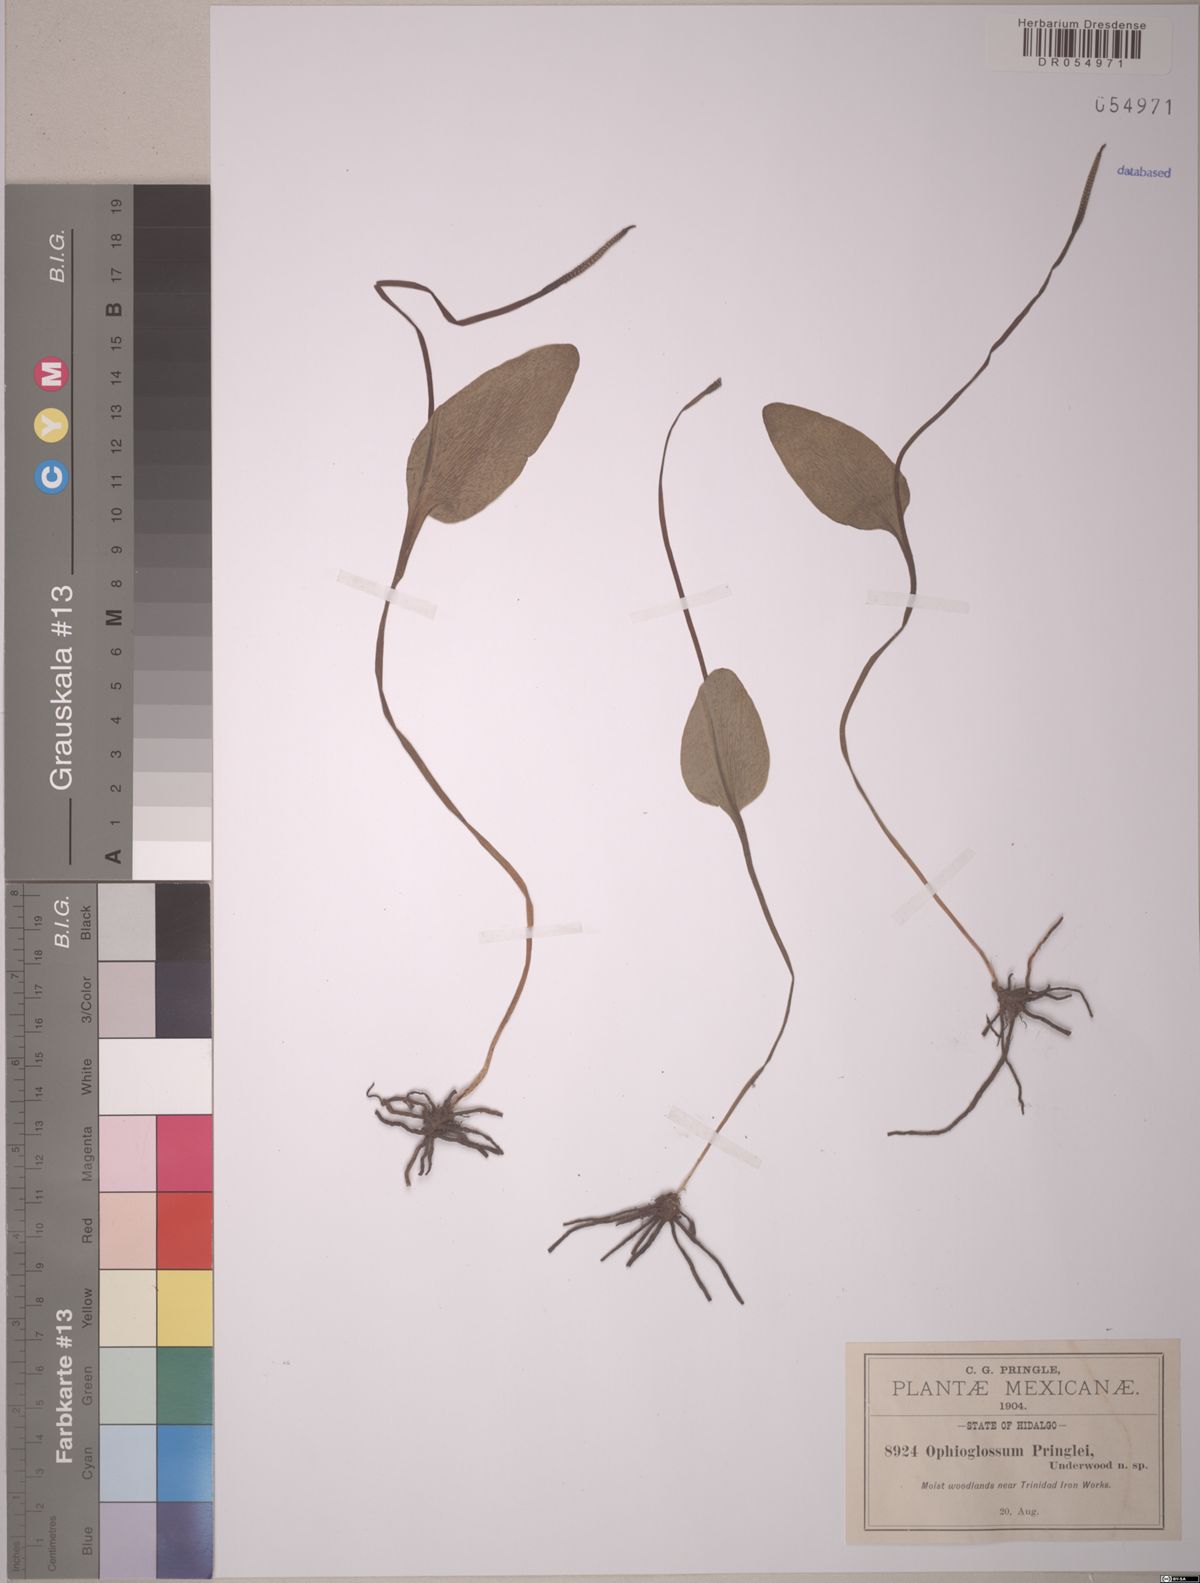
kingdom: Plantae
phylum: Tracheophyta
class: Polypodiopsida
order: Ophioglossales
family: Ophioglossaceae
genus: Ophioglossum
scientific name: Ophioglossum vulgatum
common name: Adder's-tongue
